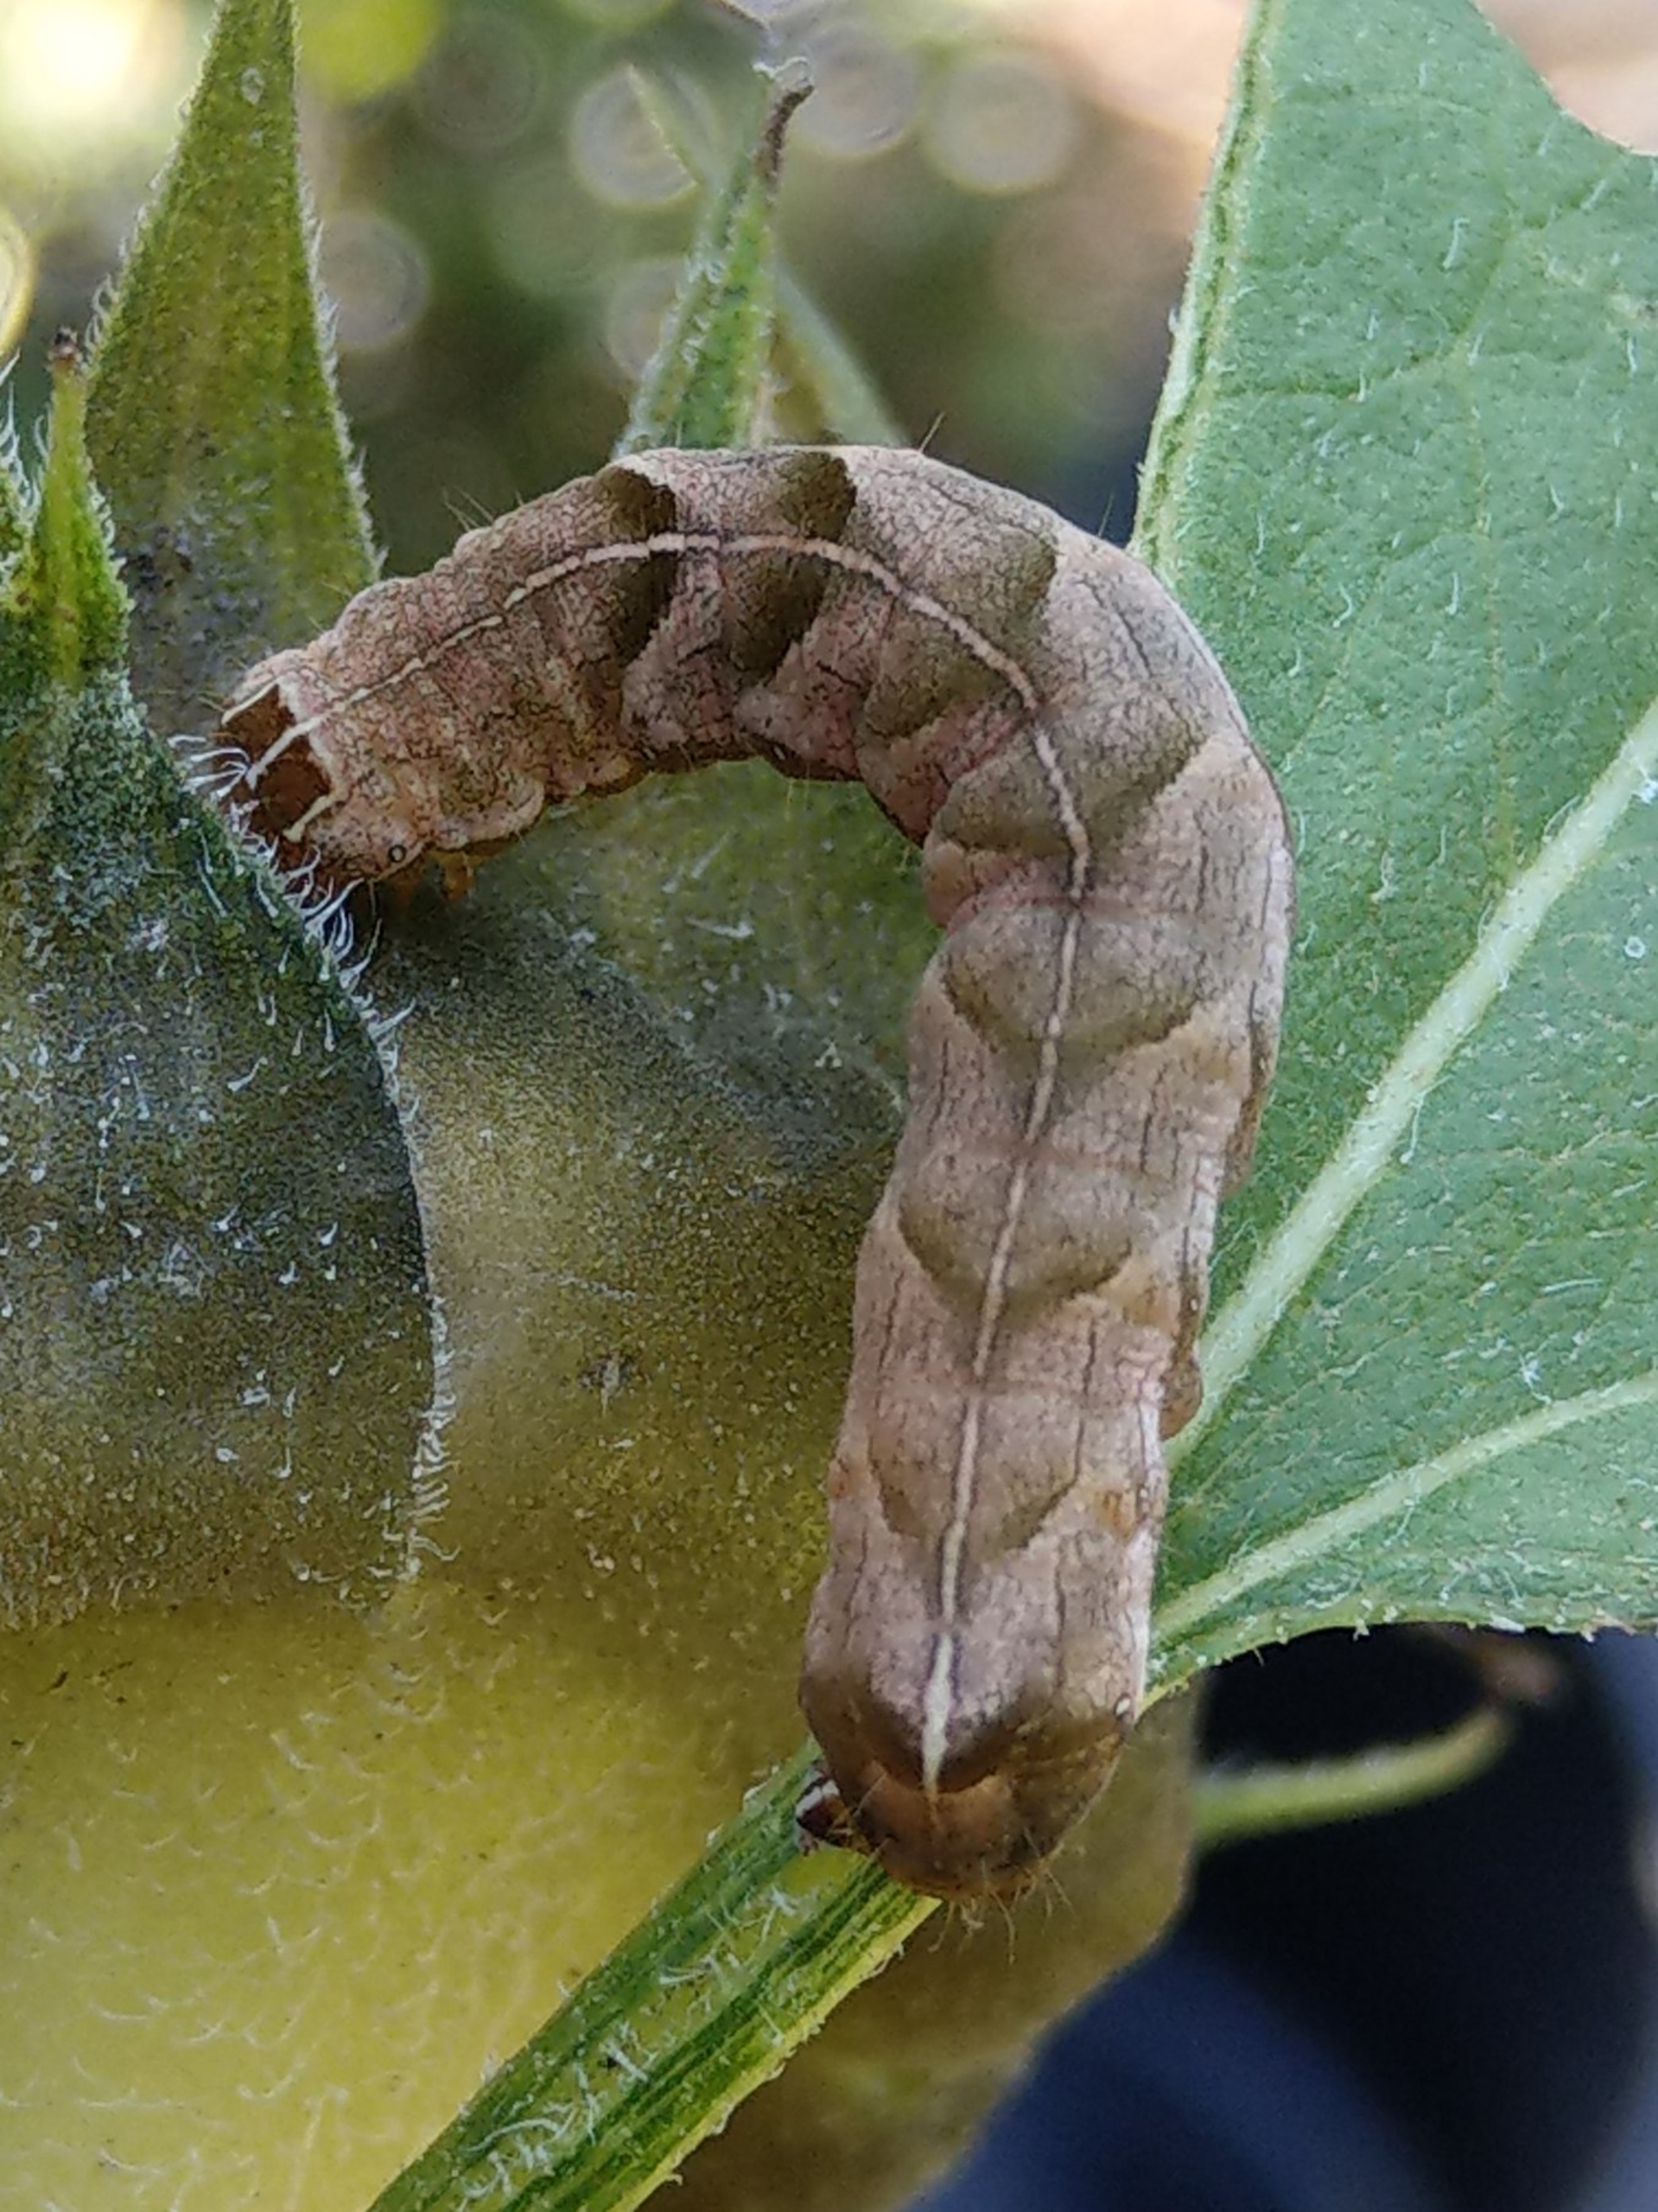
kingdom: Animalia
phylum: Arthropoda
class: Insecta
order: Lepidoptera
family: Noctuidae
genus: Melanchra
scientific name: Melanchra persicariae
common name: Pileurtugle
